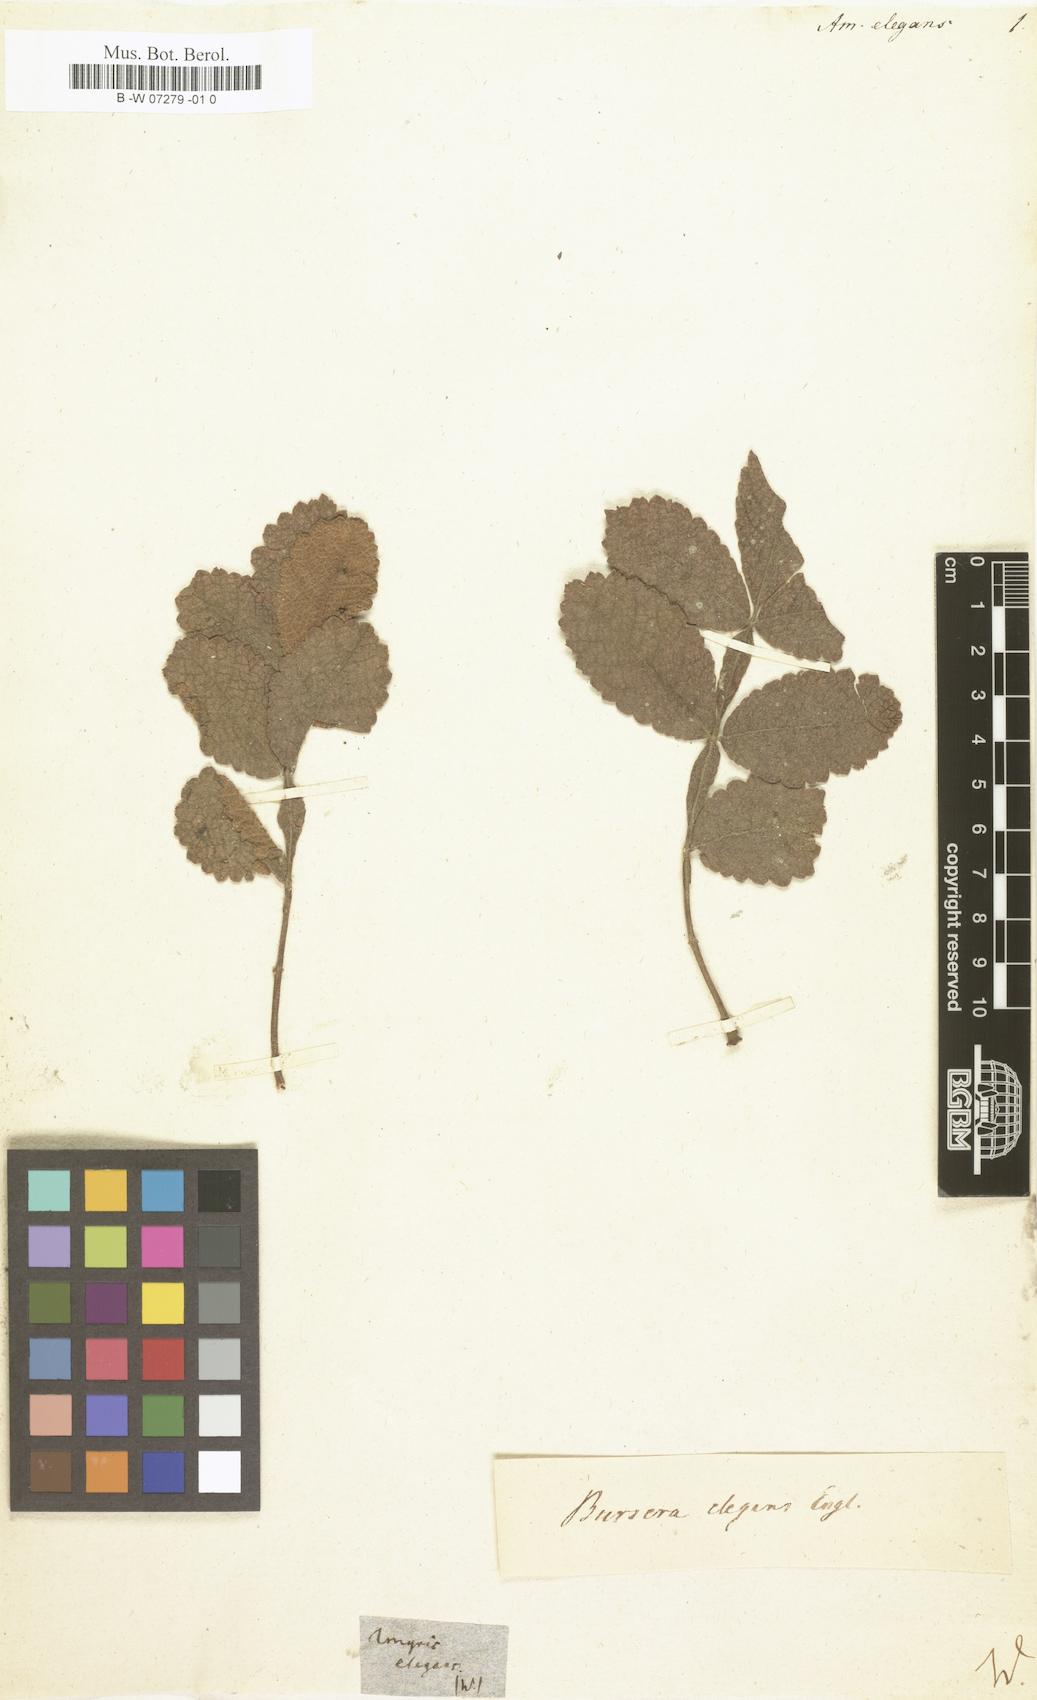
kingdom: Plantae
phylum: Tracheophyta
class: Magnoliopsida
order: Sapindales
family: Burseraceae
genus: Bursera
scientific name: Bursera excelsa
